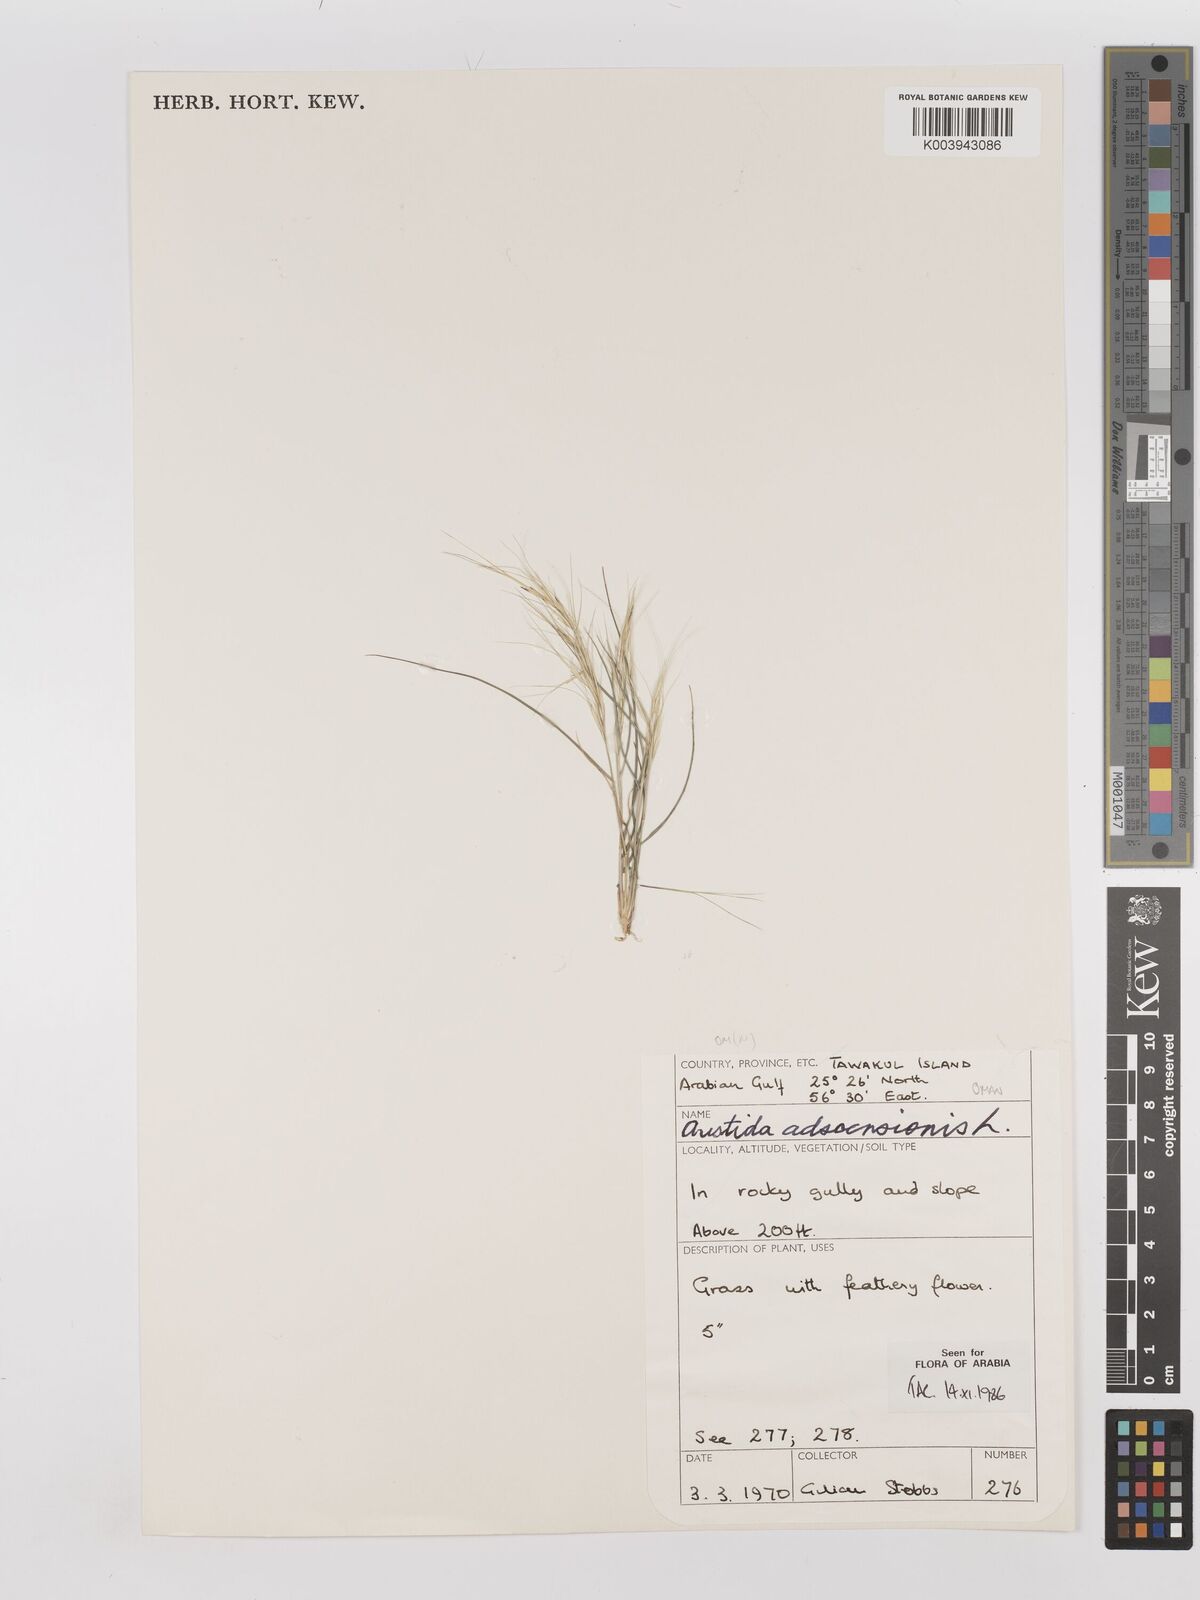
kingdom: Plantae
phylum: Tracheophyta
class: Liliopsida
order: Poales
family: Poaceae
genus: Aristida
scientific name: Aristida adscensionis
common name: Sixweeks threeawn
